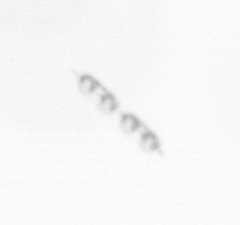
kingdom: Chromista
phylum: Ochrophyta
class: Bacillariophyceae
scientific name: Bacillariophyceae
